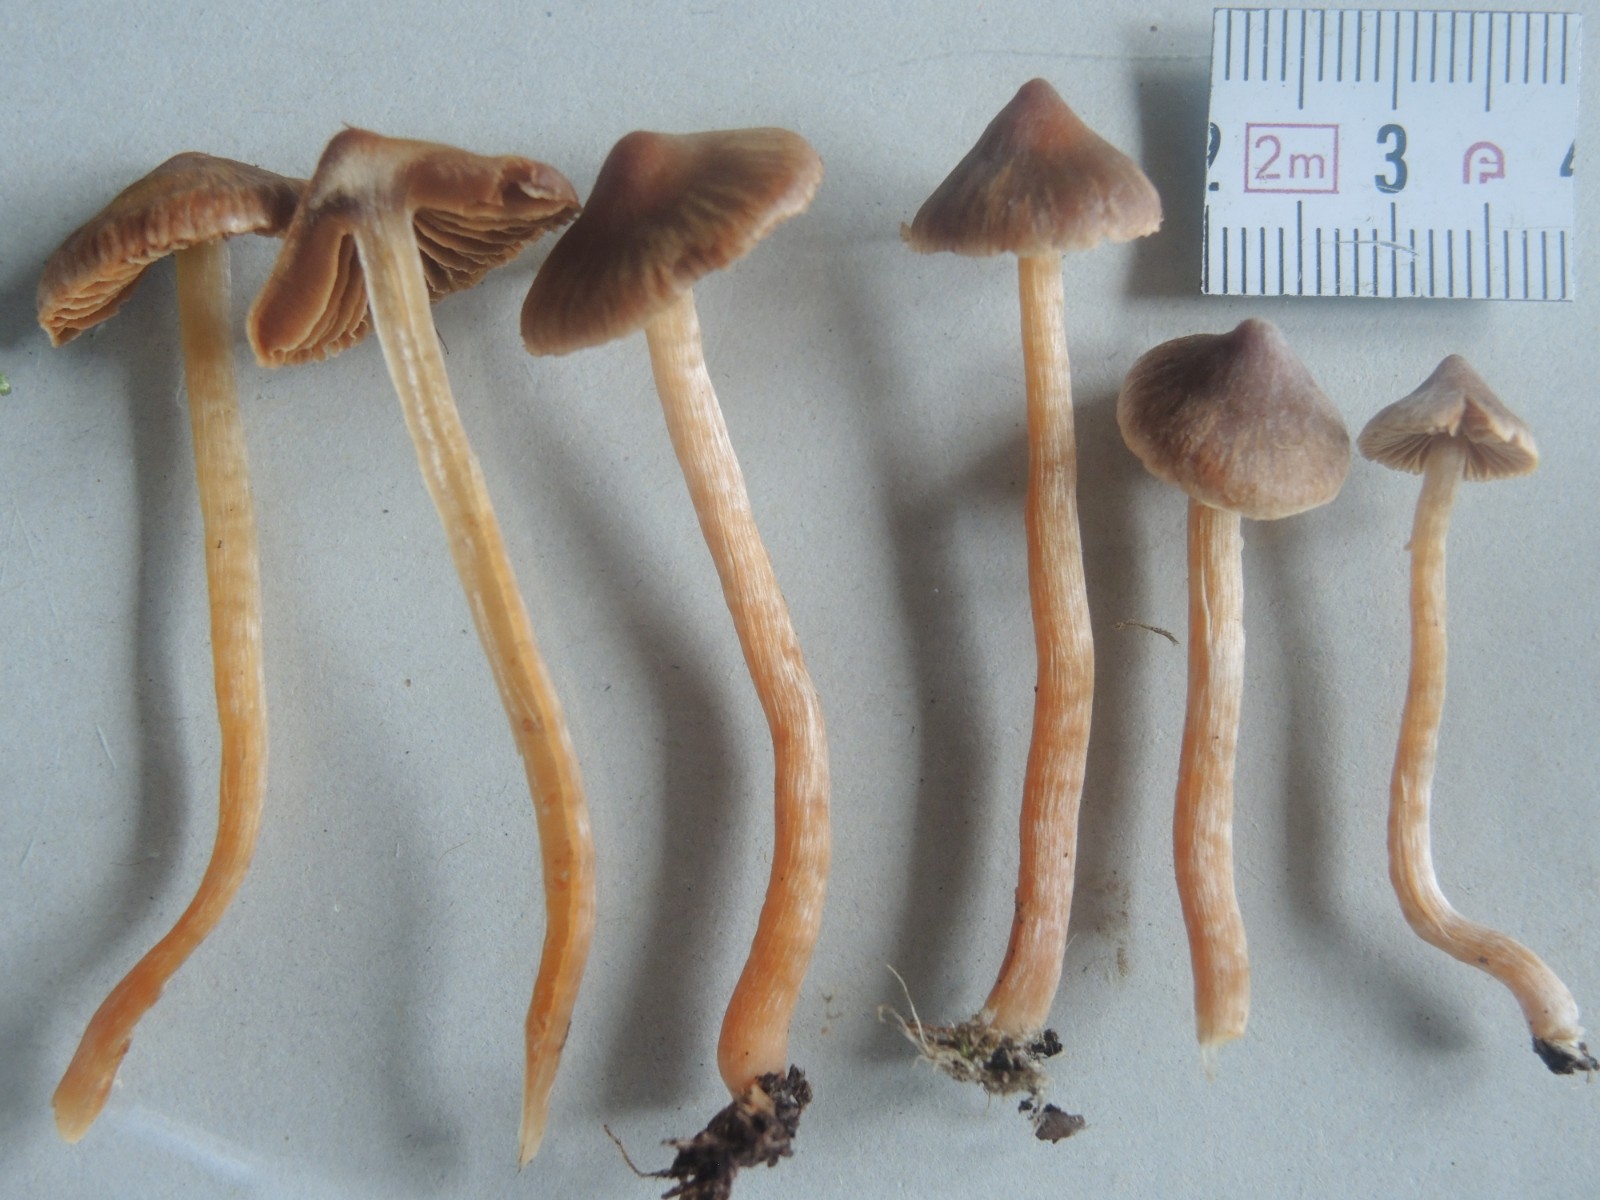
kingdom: Fungi
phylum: Basidiomycota
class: Agaricomycetes
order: Agaricales
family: Cortinariaceae
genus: Cortinarius
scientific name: Cortinarius
